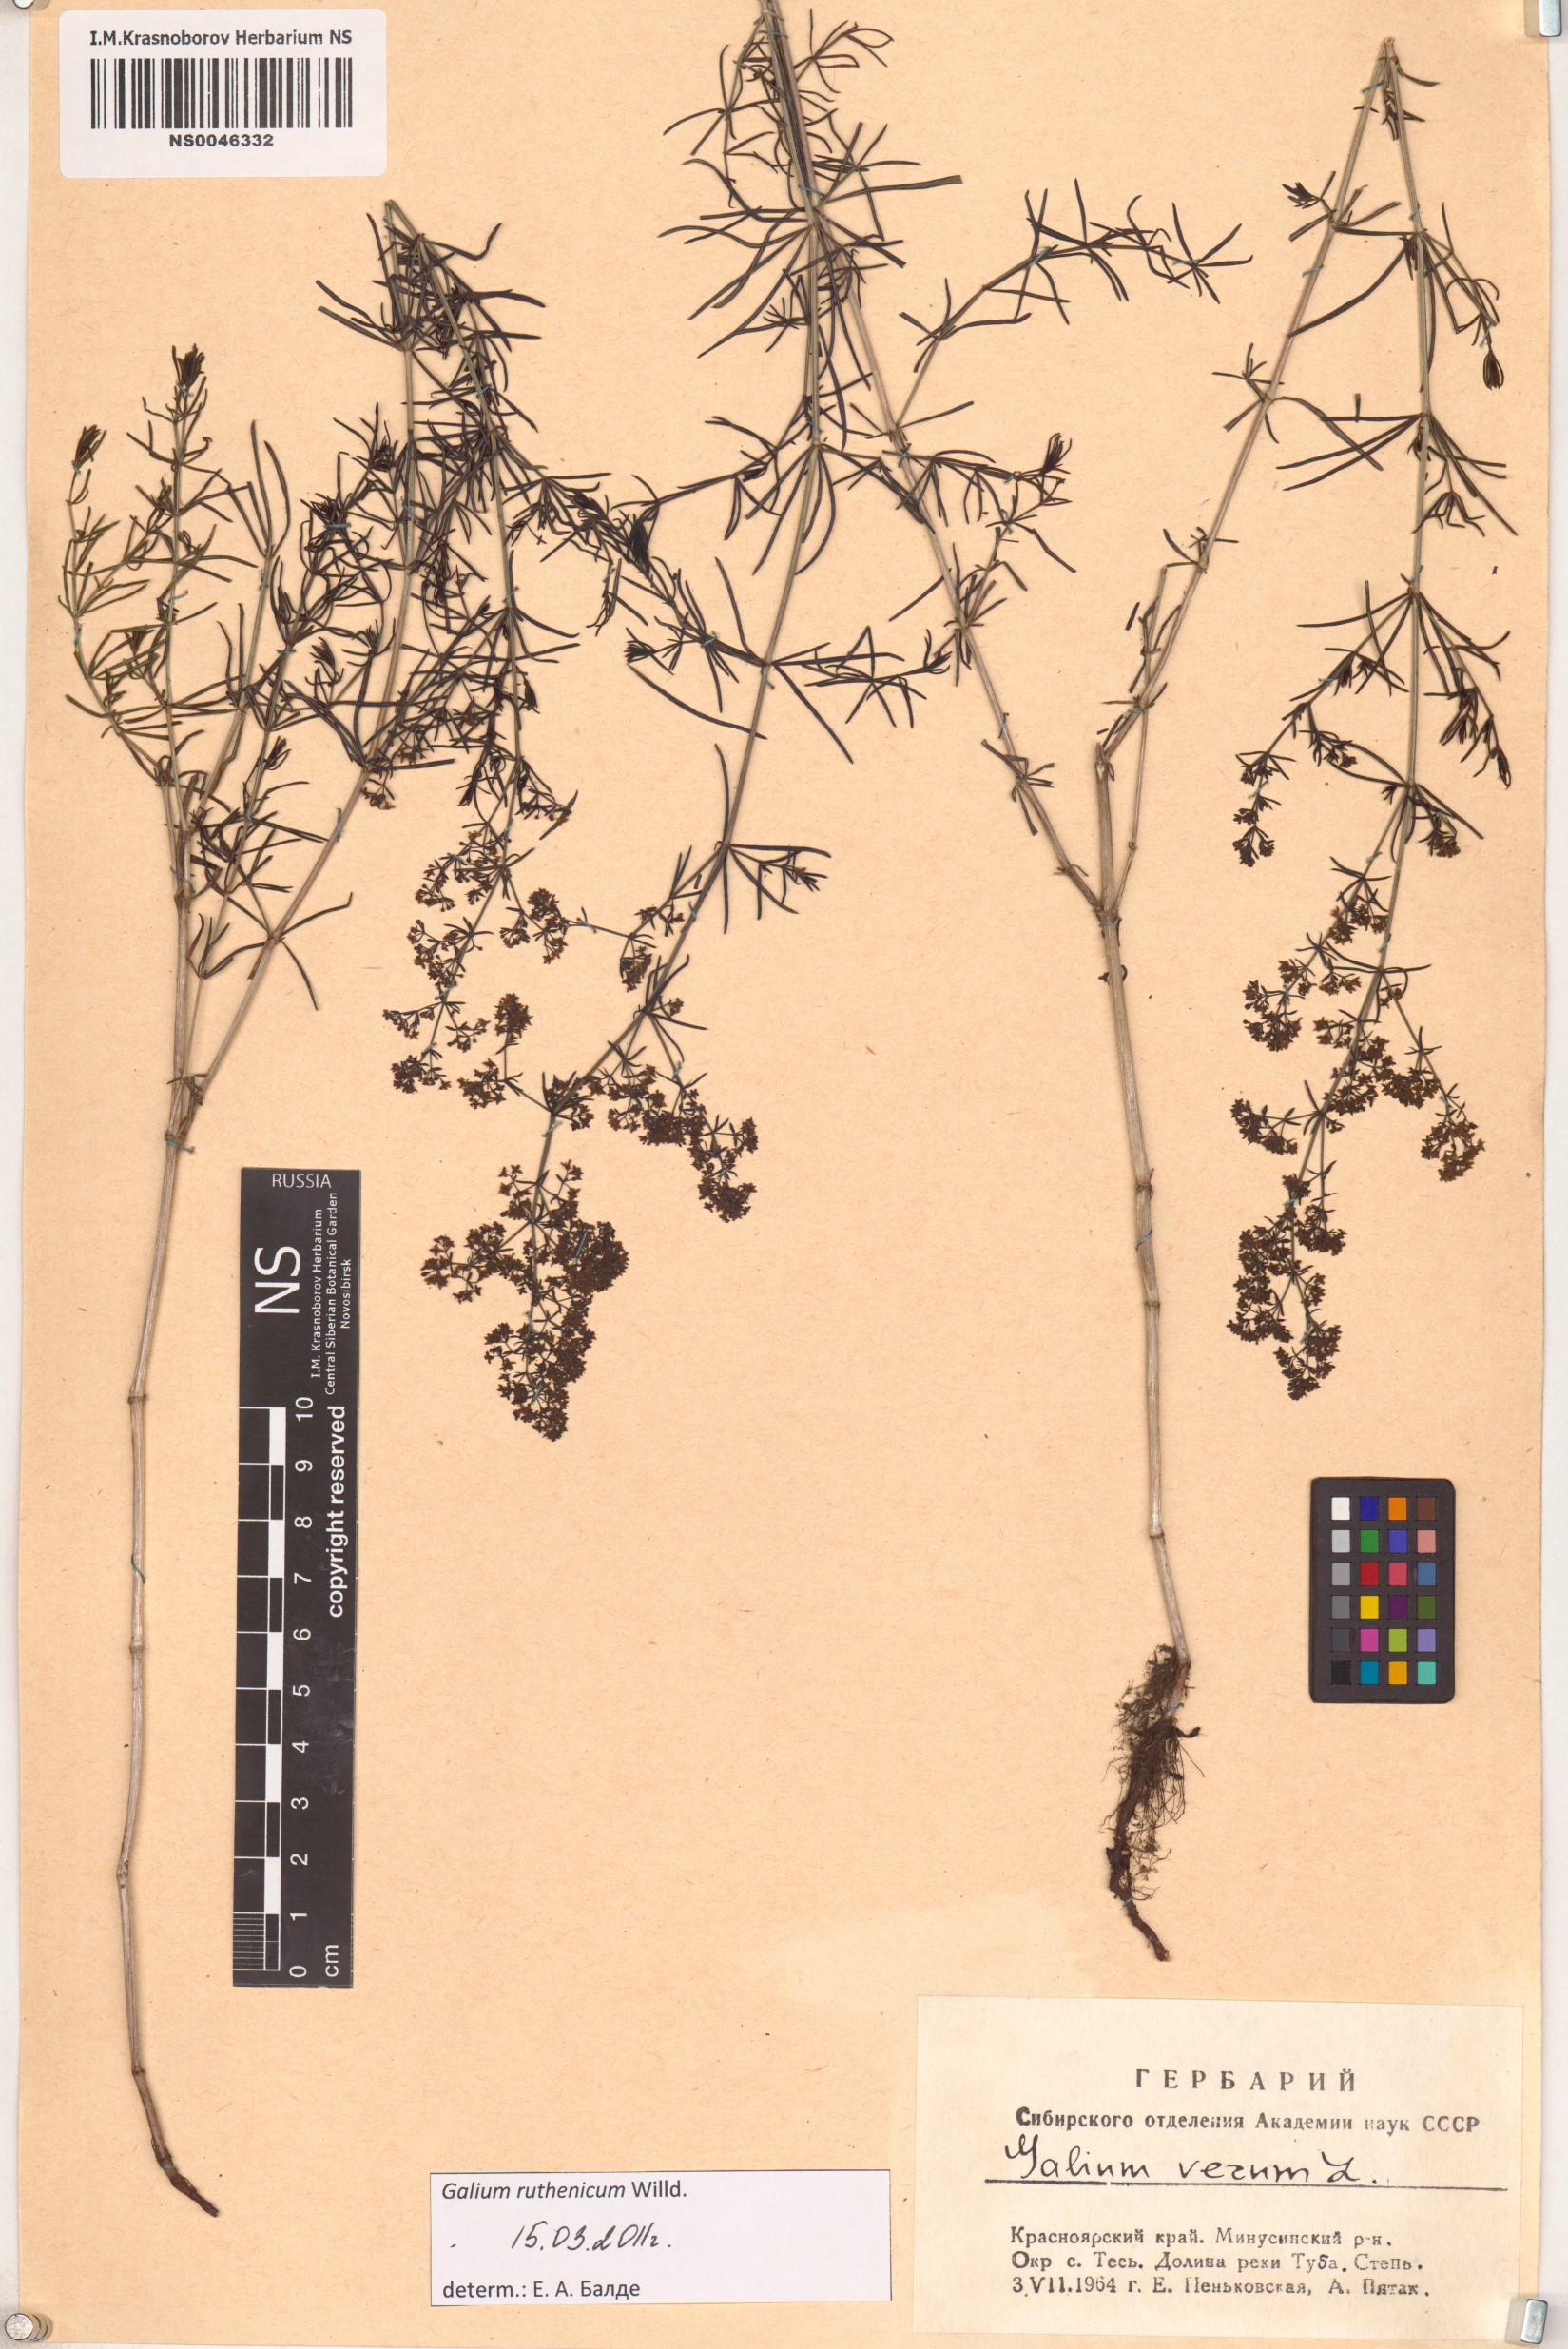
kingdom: Plantae
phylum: Tracheophyta
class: Magnoliopsida
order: Gentianales
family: Rubiaceae
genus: Galium
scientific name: Galium verum
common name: Lady's bedstraw
